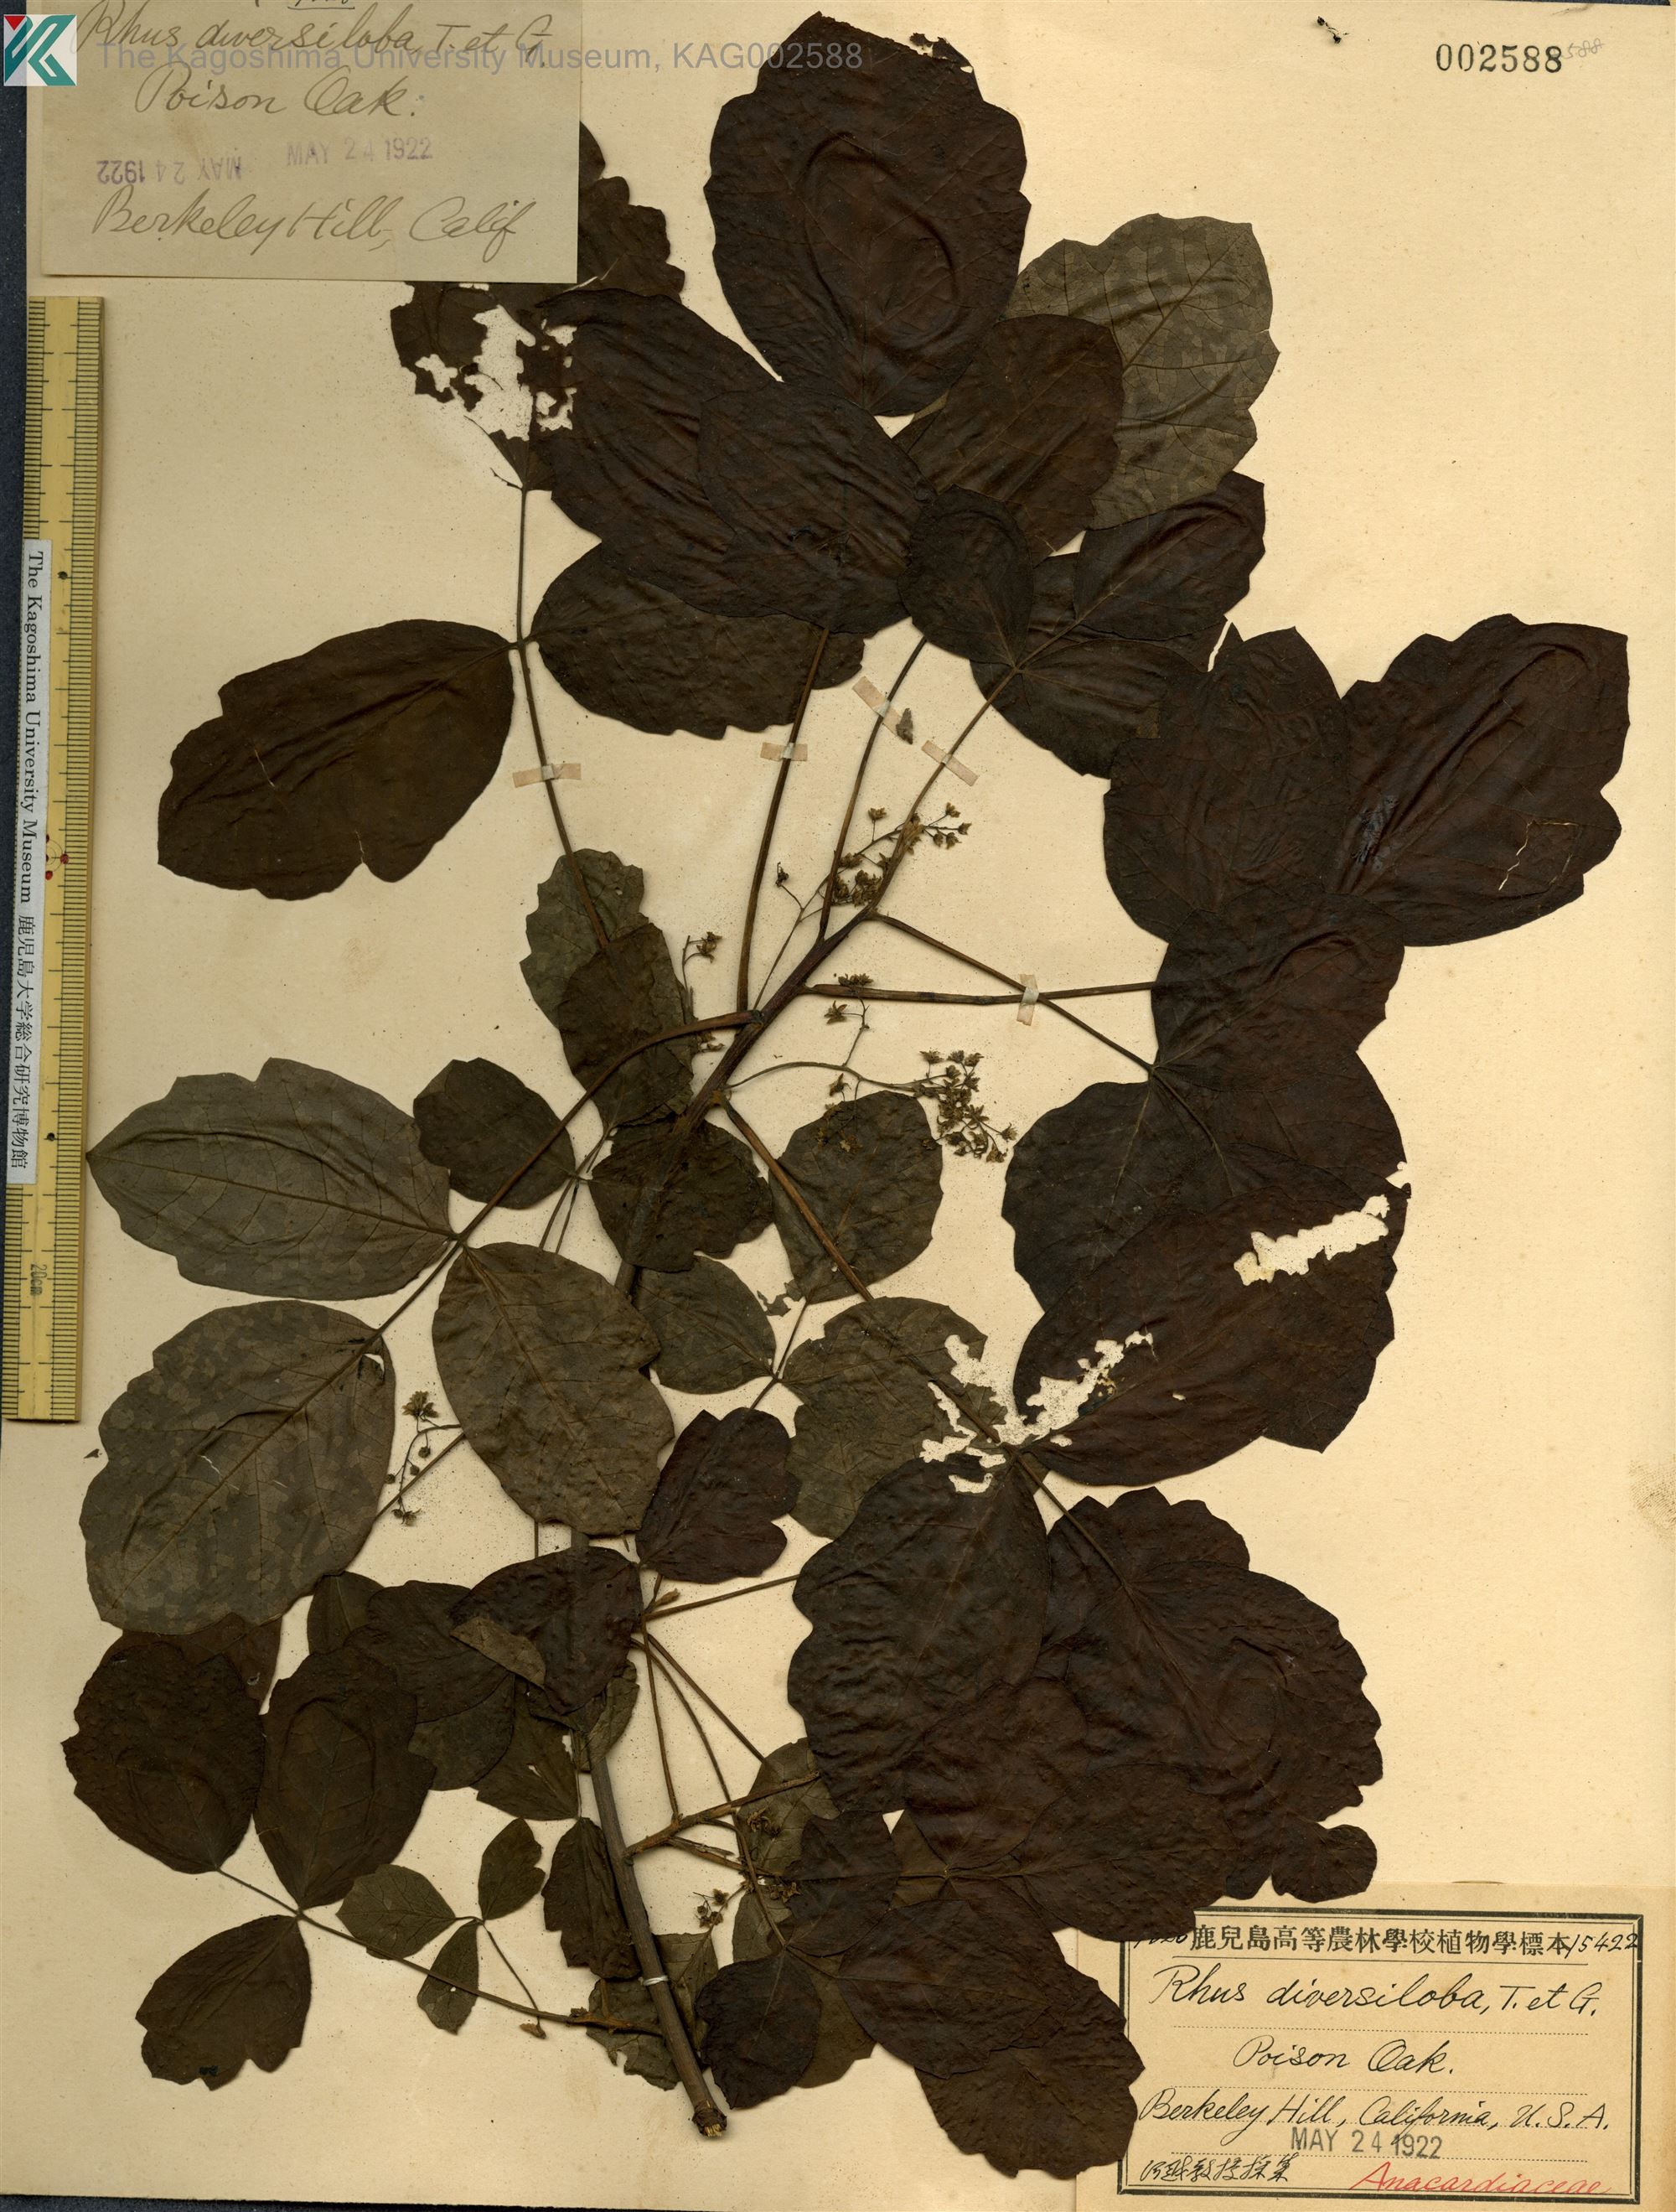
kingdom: Plantae
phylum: Tracheophyta
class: Magnoliopsida
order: Sapindales
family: Anacardiaceae
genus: Toxicodendron
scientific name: Toxicodendron diversilobum
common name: Pacific poison-oak
